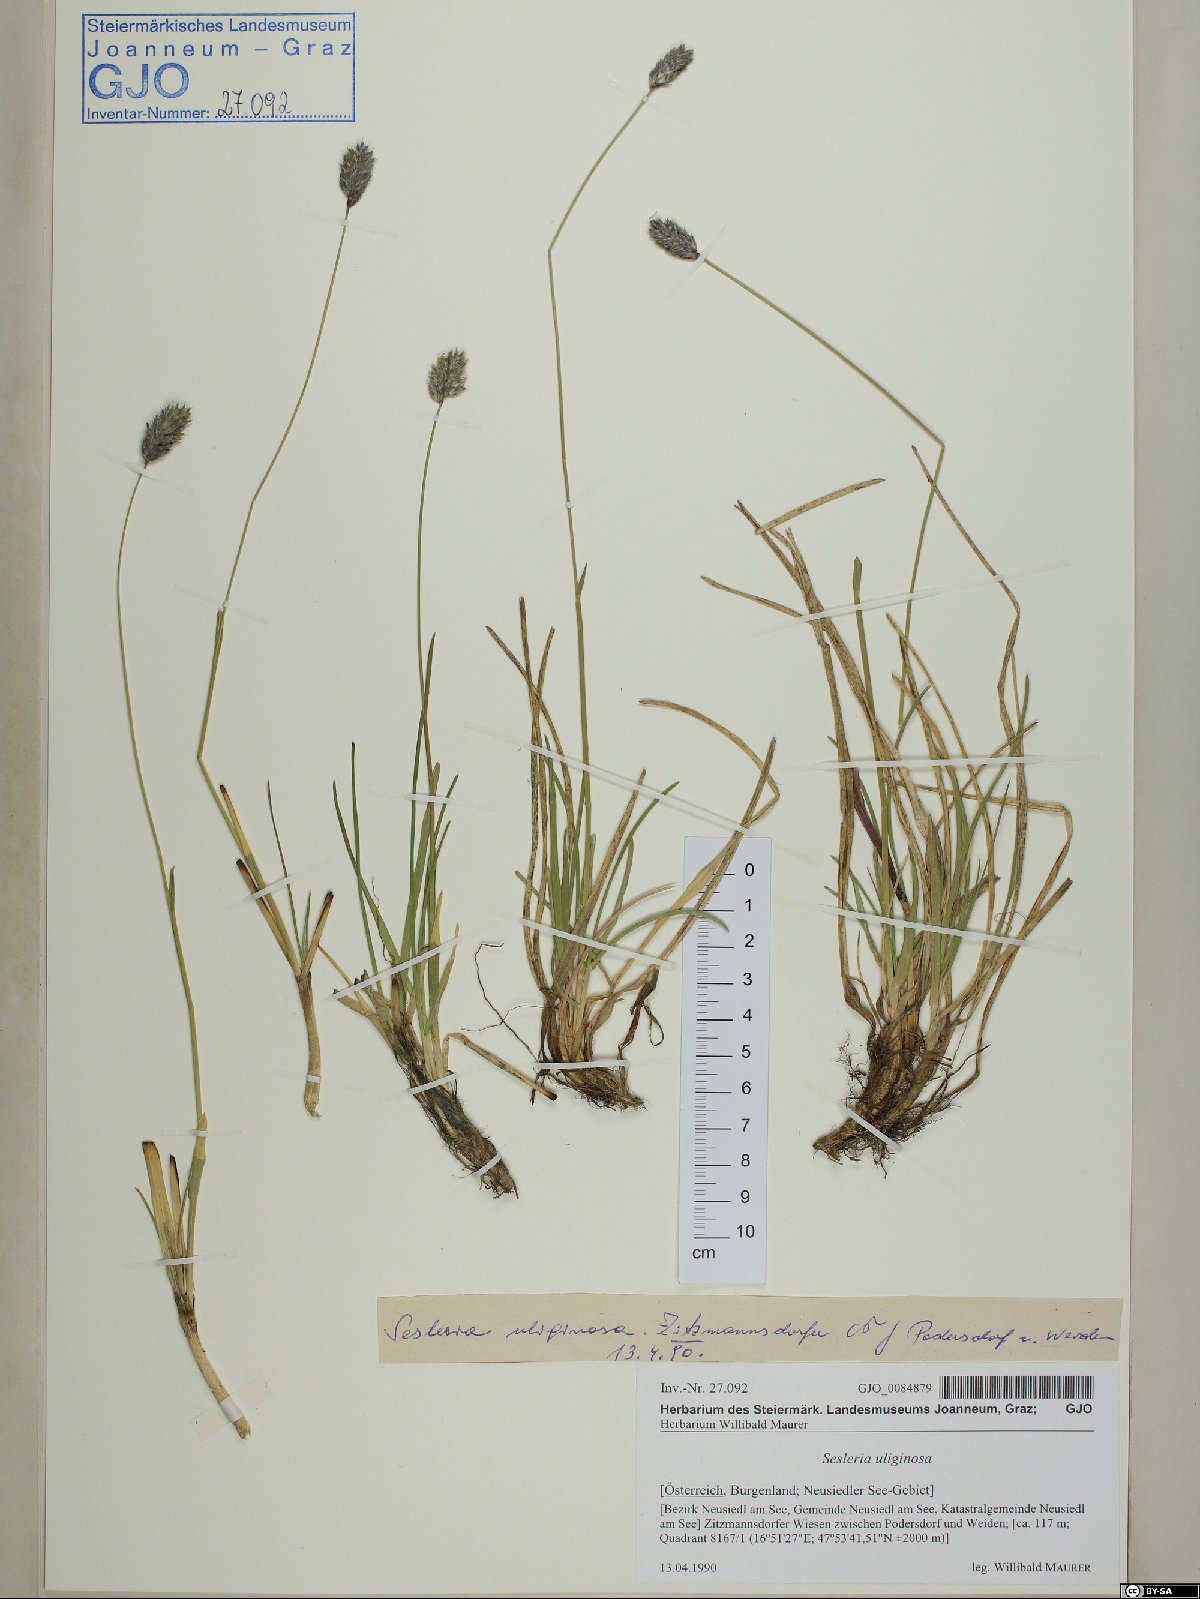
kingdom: Plantae
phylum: Tracheophyta
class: Liliopsida
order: Poales
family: Poaceae
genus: Sesleria
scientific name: Sesleria uliginosa
